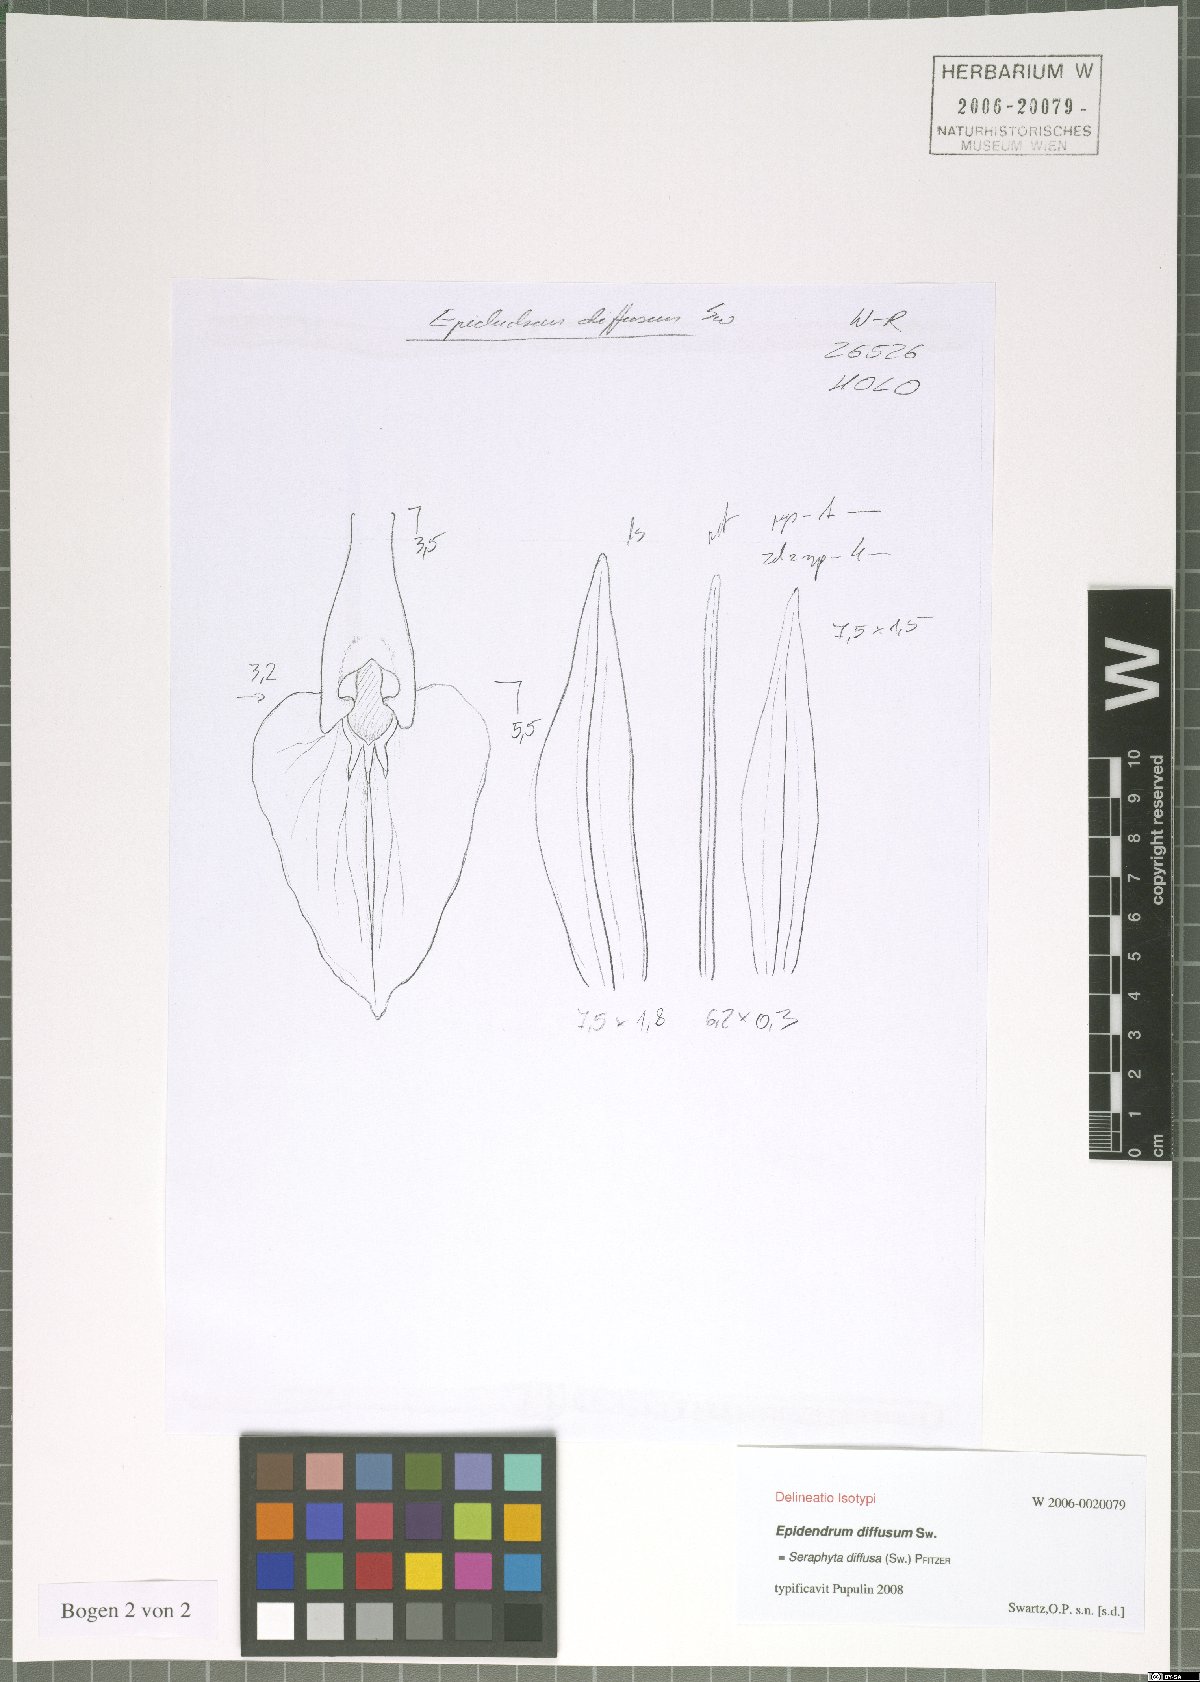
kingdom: Plantae
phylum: Tracheophyta
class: Liliopsida
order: Asparagales
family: Orchidaceae
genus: Epidendrum
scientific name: Epidendrum diffusum
